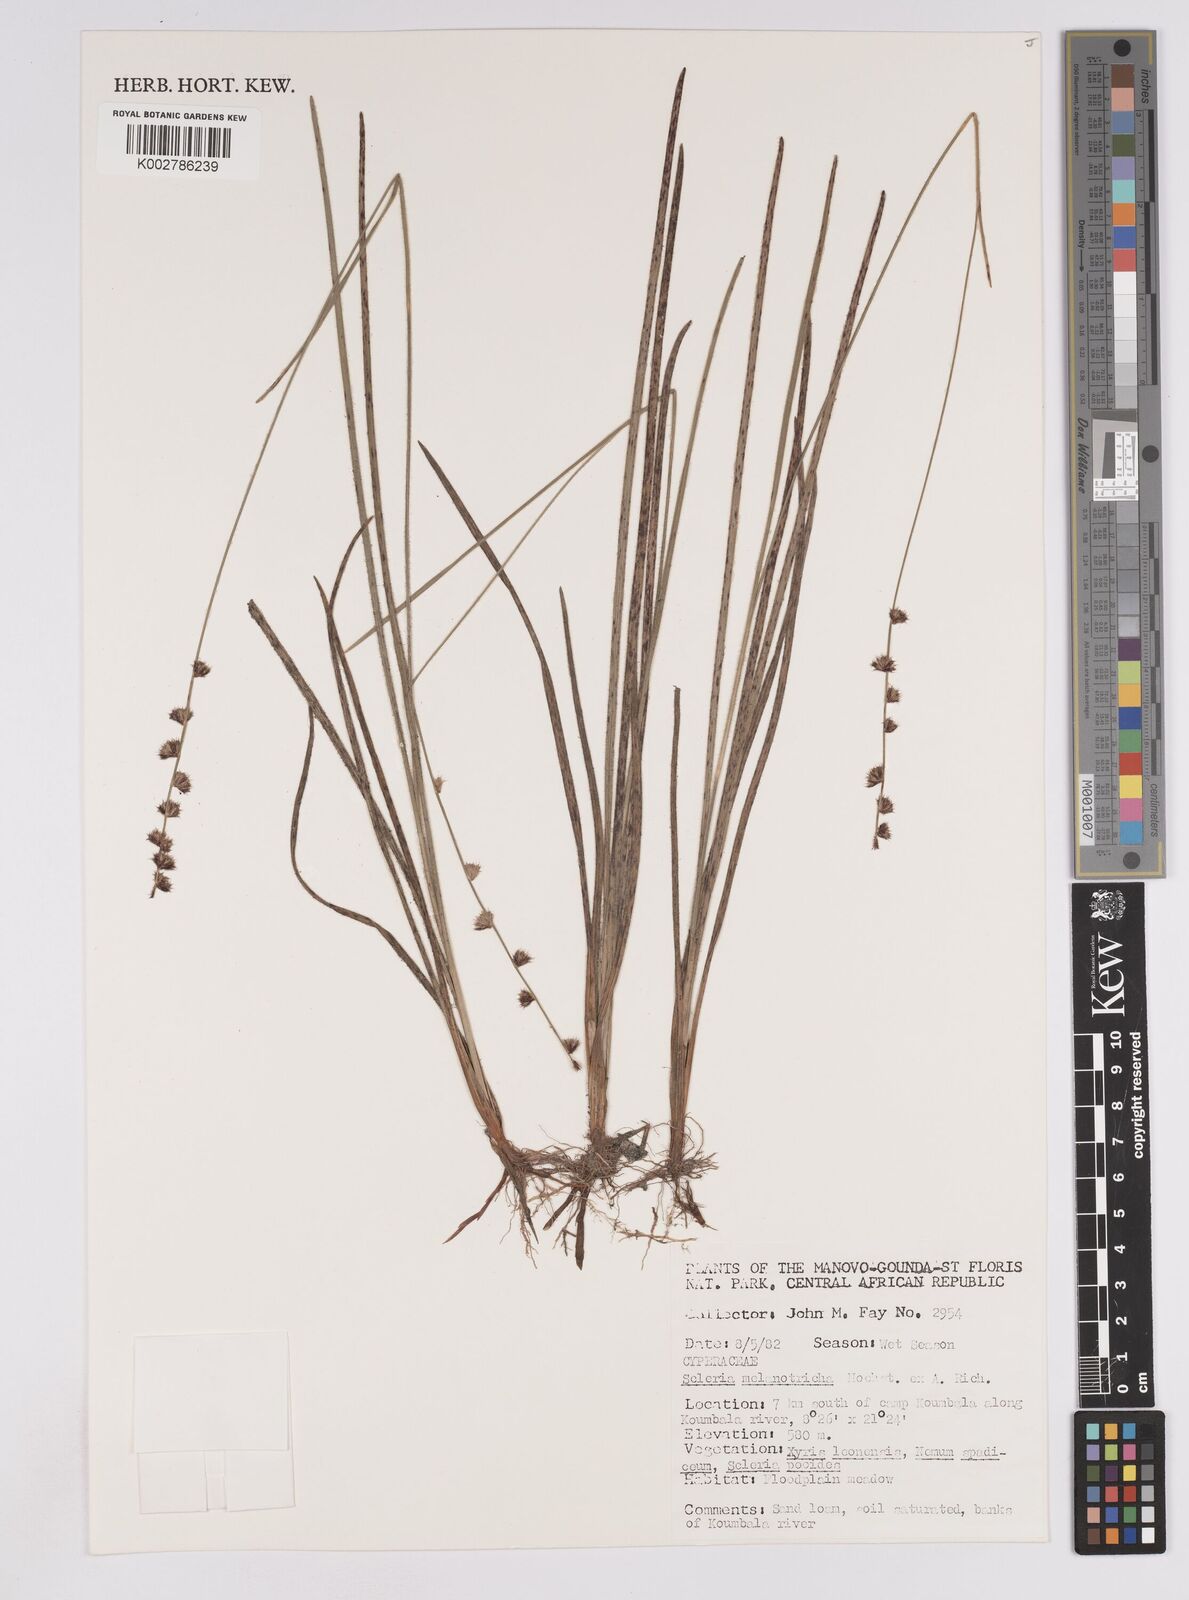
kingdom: Plantae
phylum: Tracheophyta
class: Liliopsida
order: Poales
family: Cyperaceae
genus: Scleria
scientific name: Scleria melanotricha
